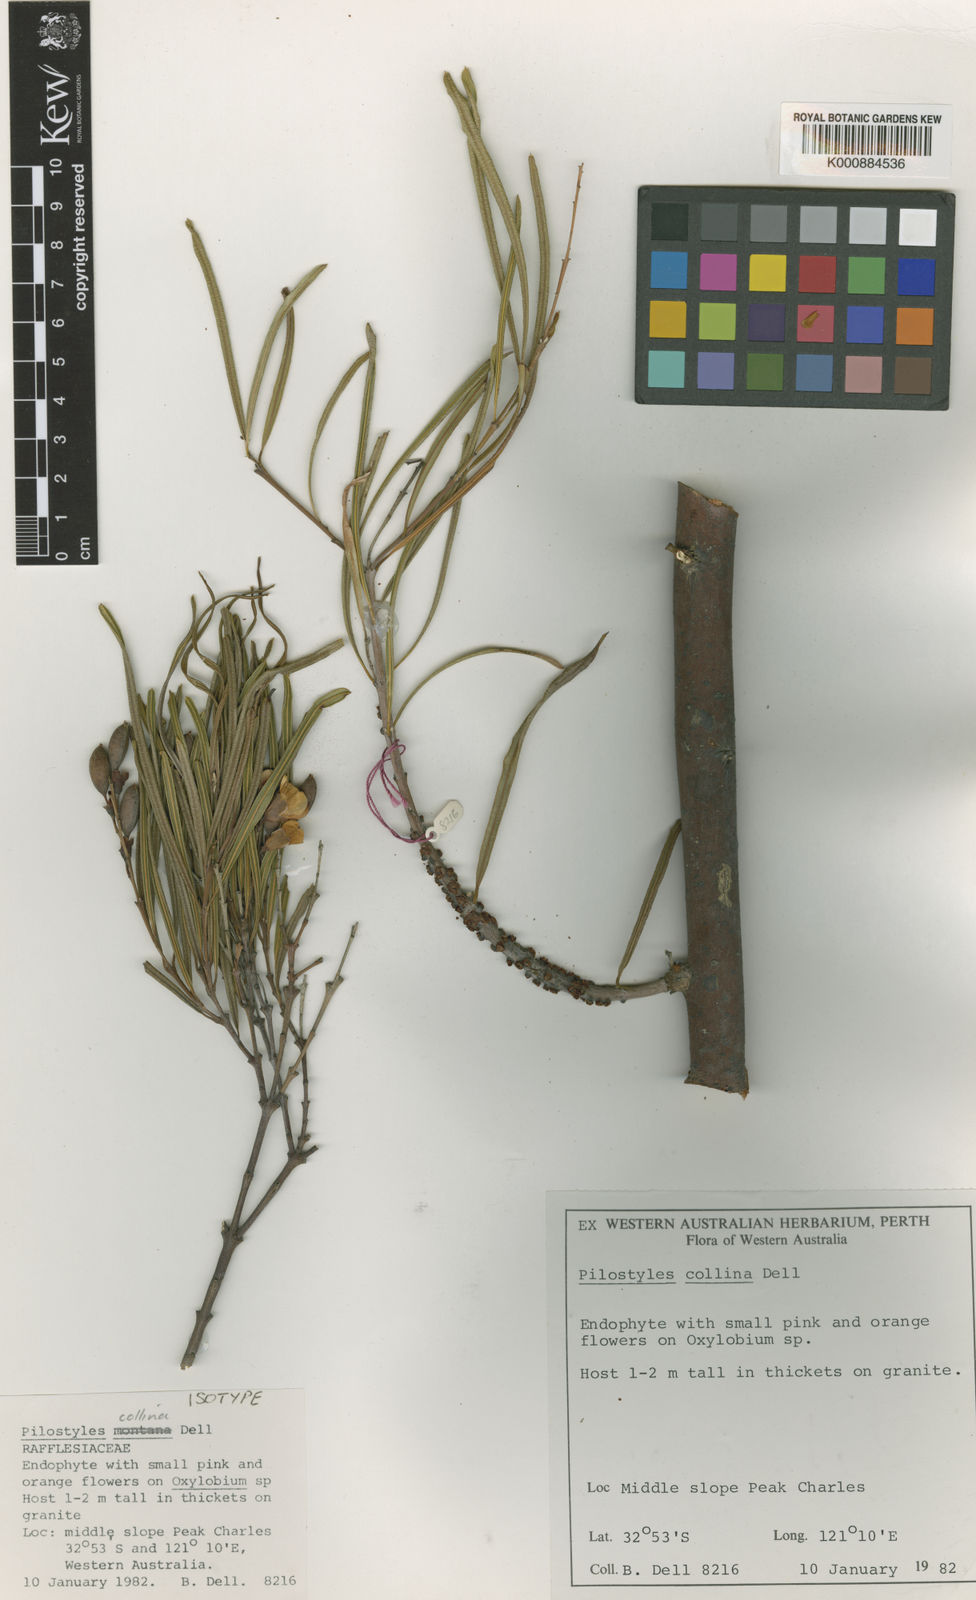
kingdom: Plantae
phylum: Tracheophyta
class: Magnoliopsida
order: Cucurbitales
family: Apodanthaceae
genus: Pilostyles
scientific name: Pilostyles collina
